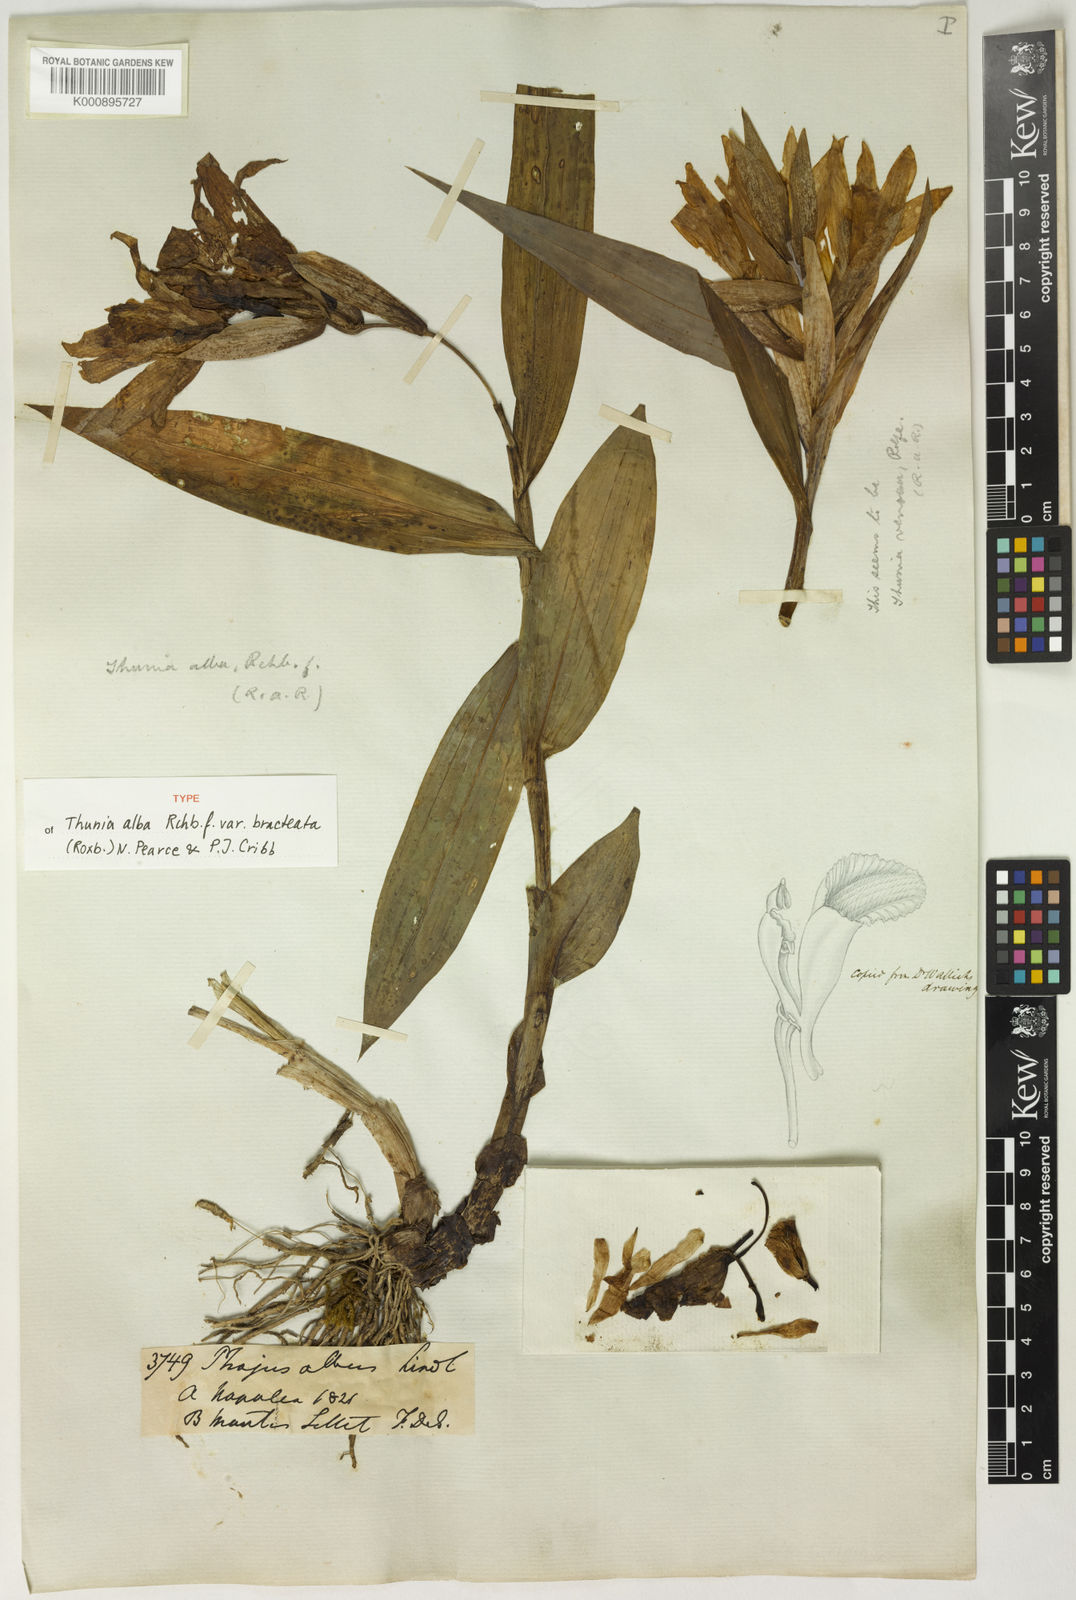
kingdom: Plantae
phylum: Tracheophyta
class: Liliopsida
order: Asparagales
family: Orchidaceae
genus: Thunia
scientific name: Thunia alba
